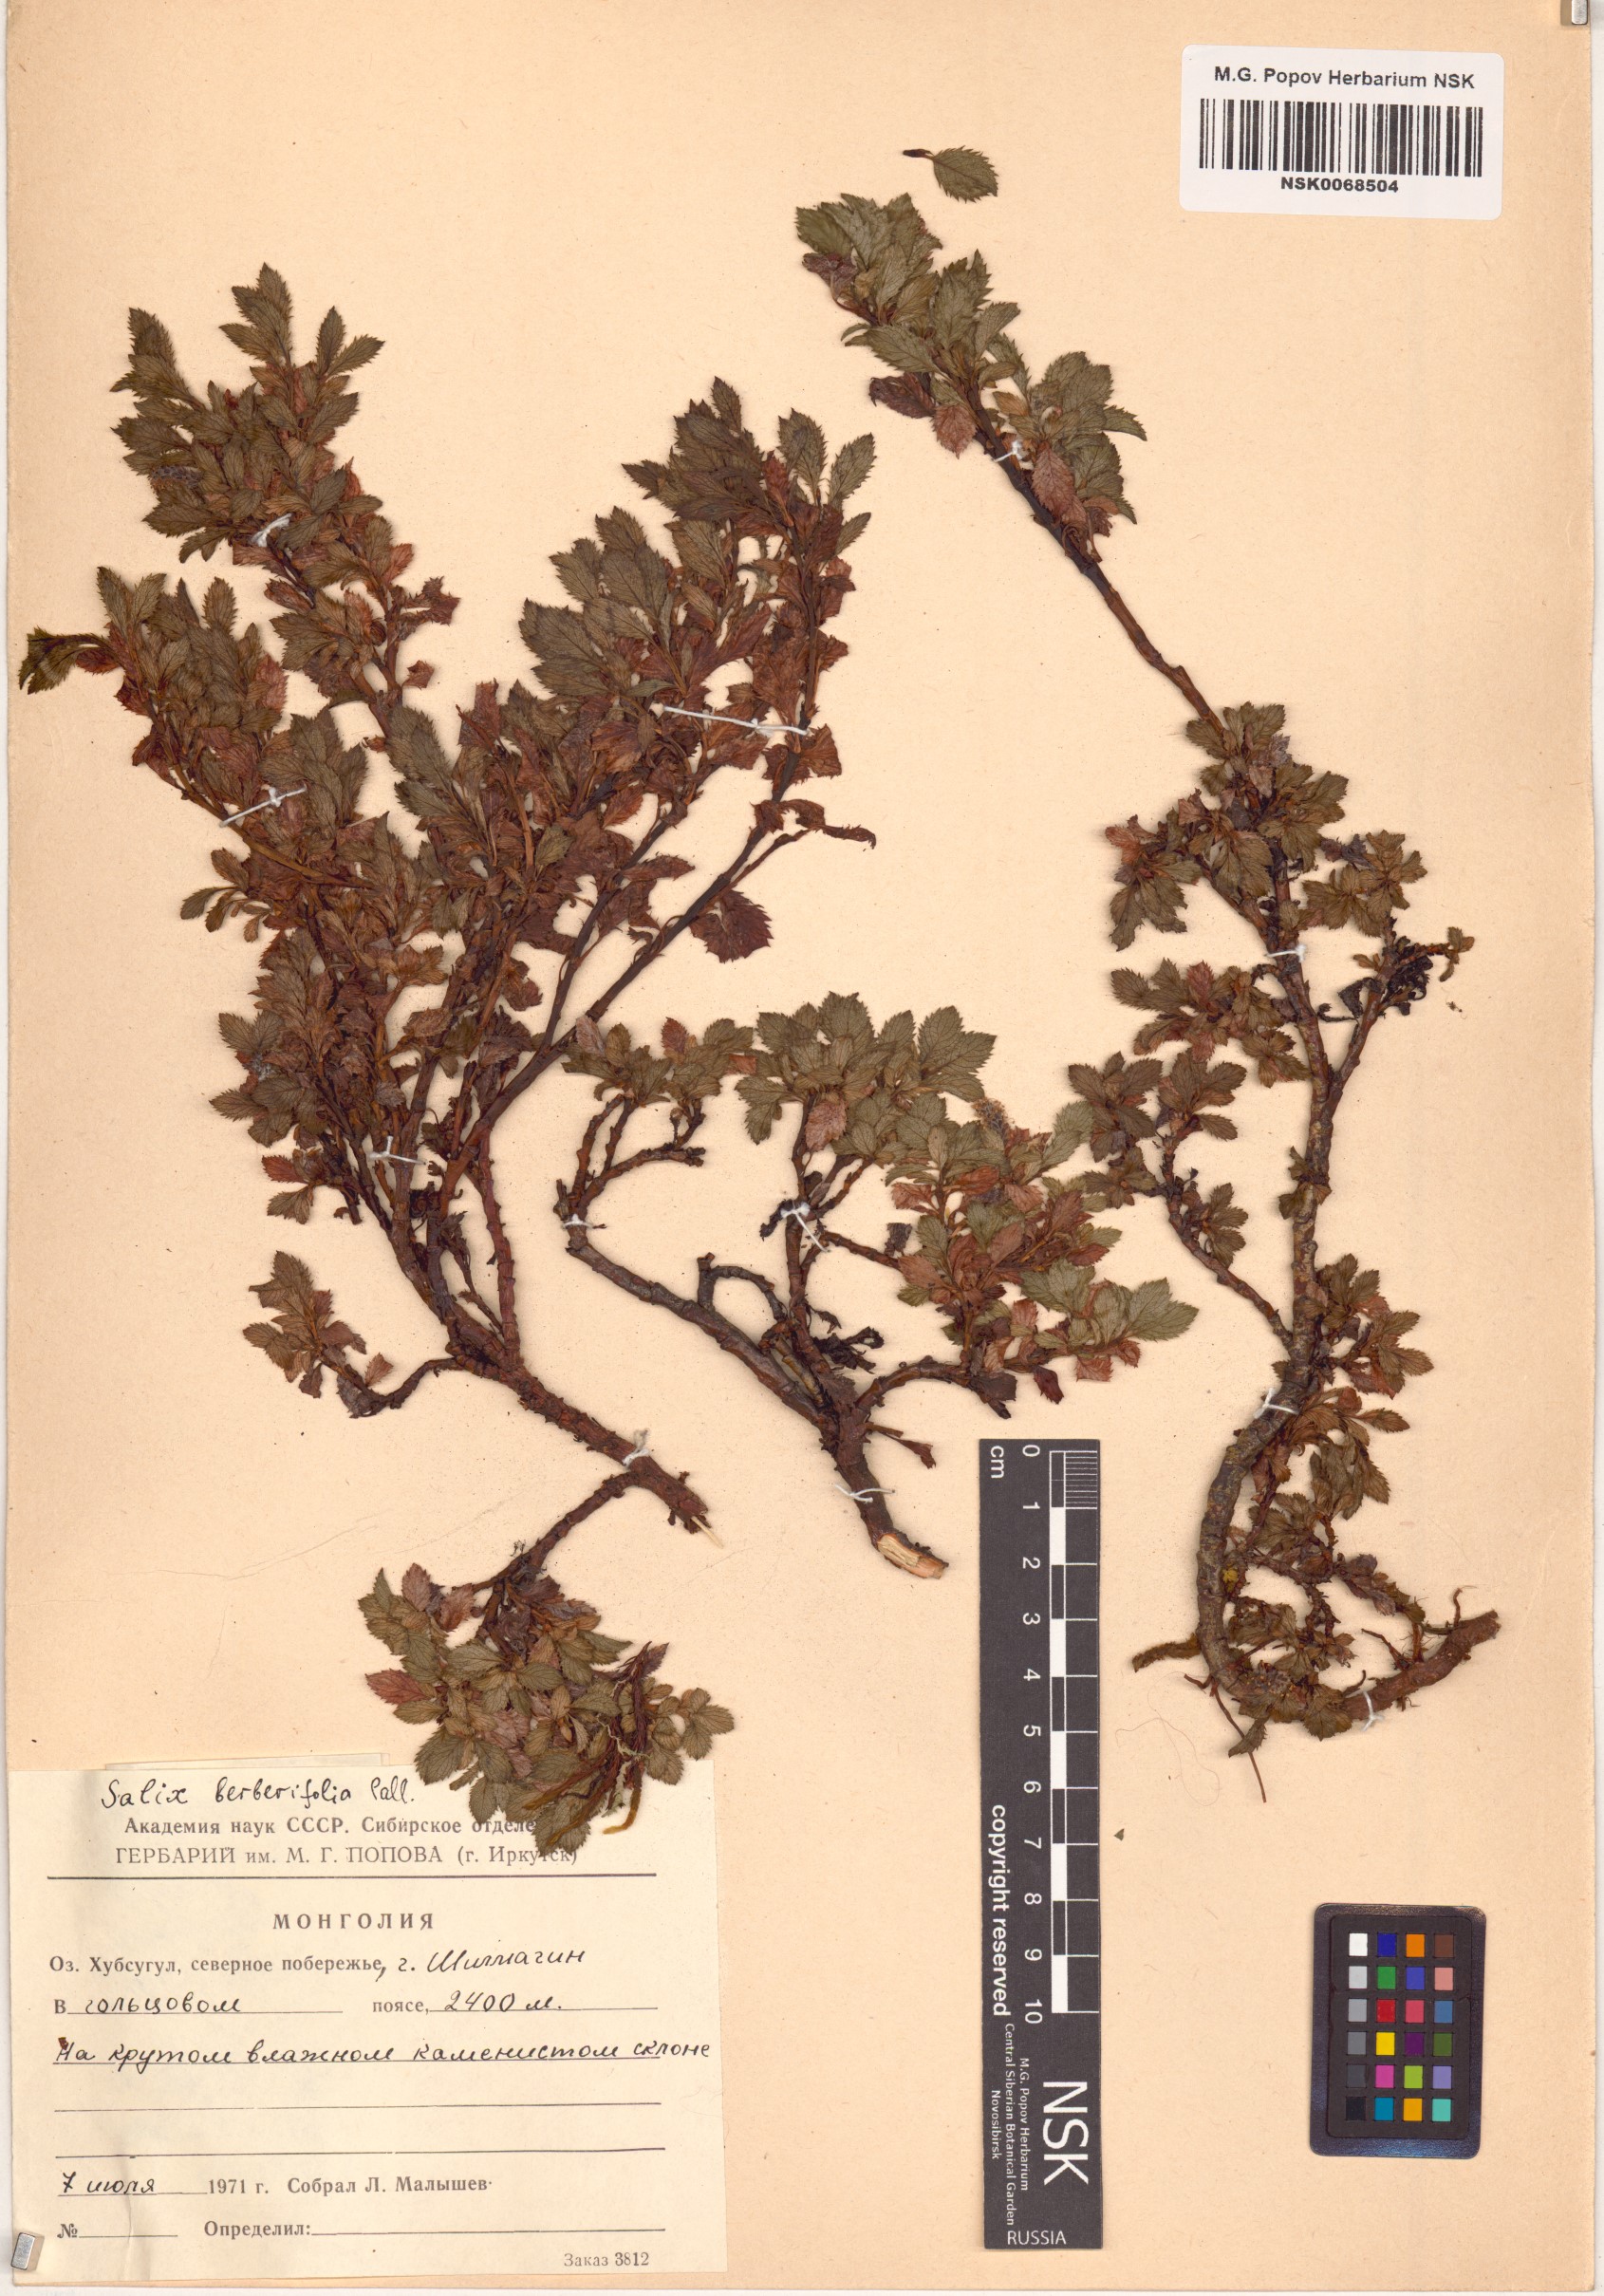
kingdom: Plantae
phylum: Tracheophyta
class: Magnoliopsida
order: Malpighiales
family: Salicaceae
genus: Salix
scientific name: Salix berberifolia
